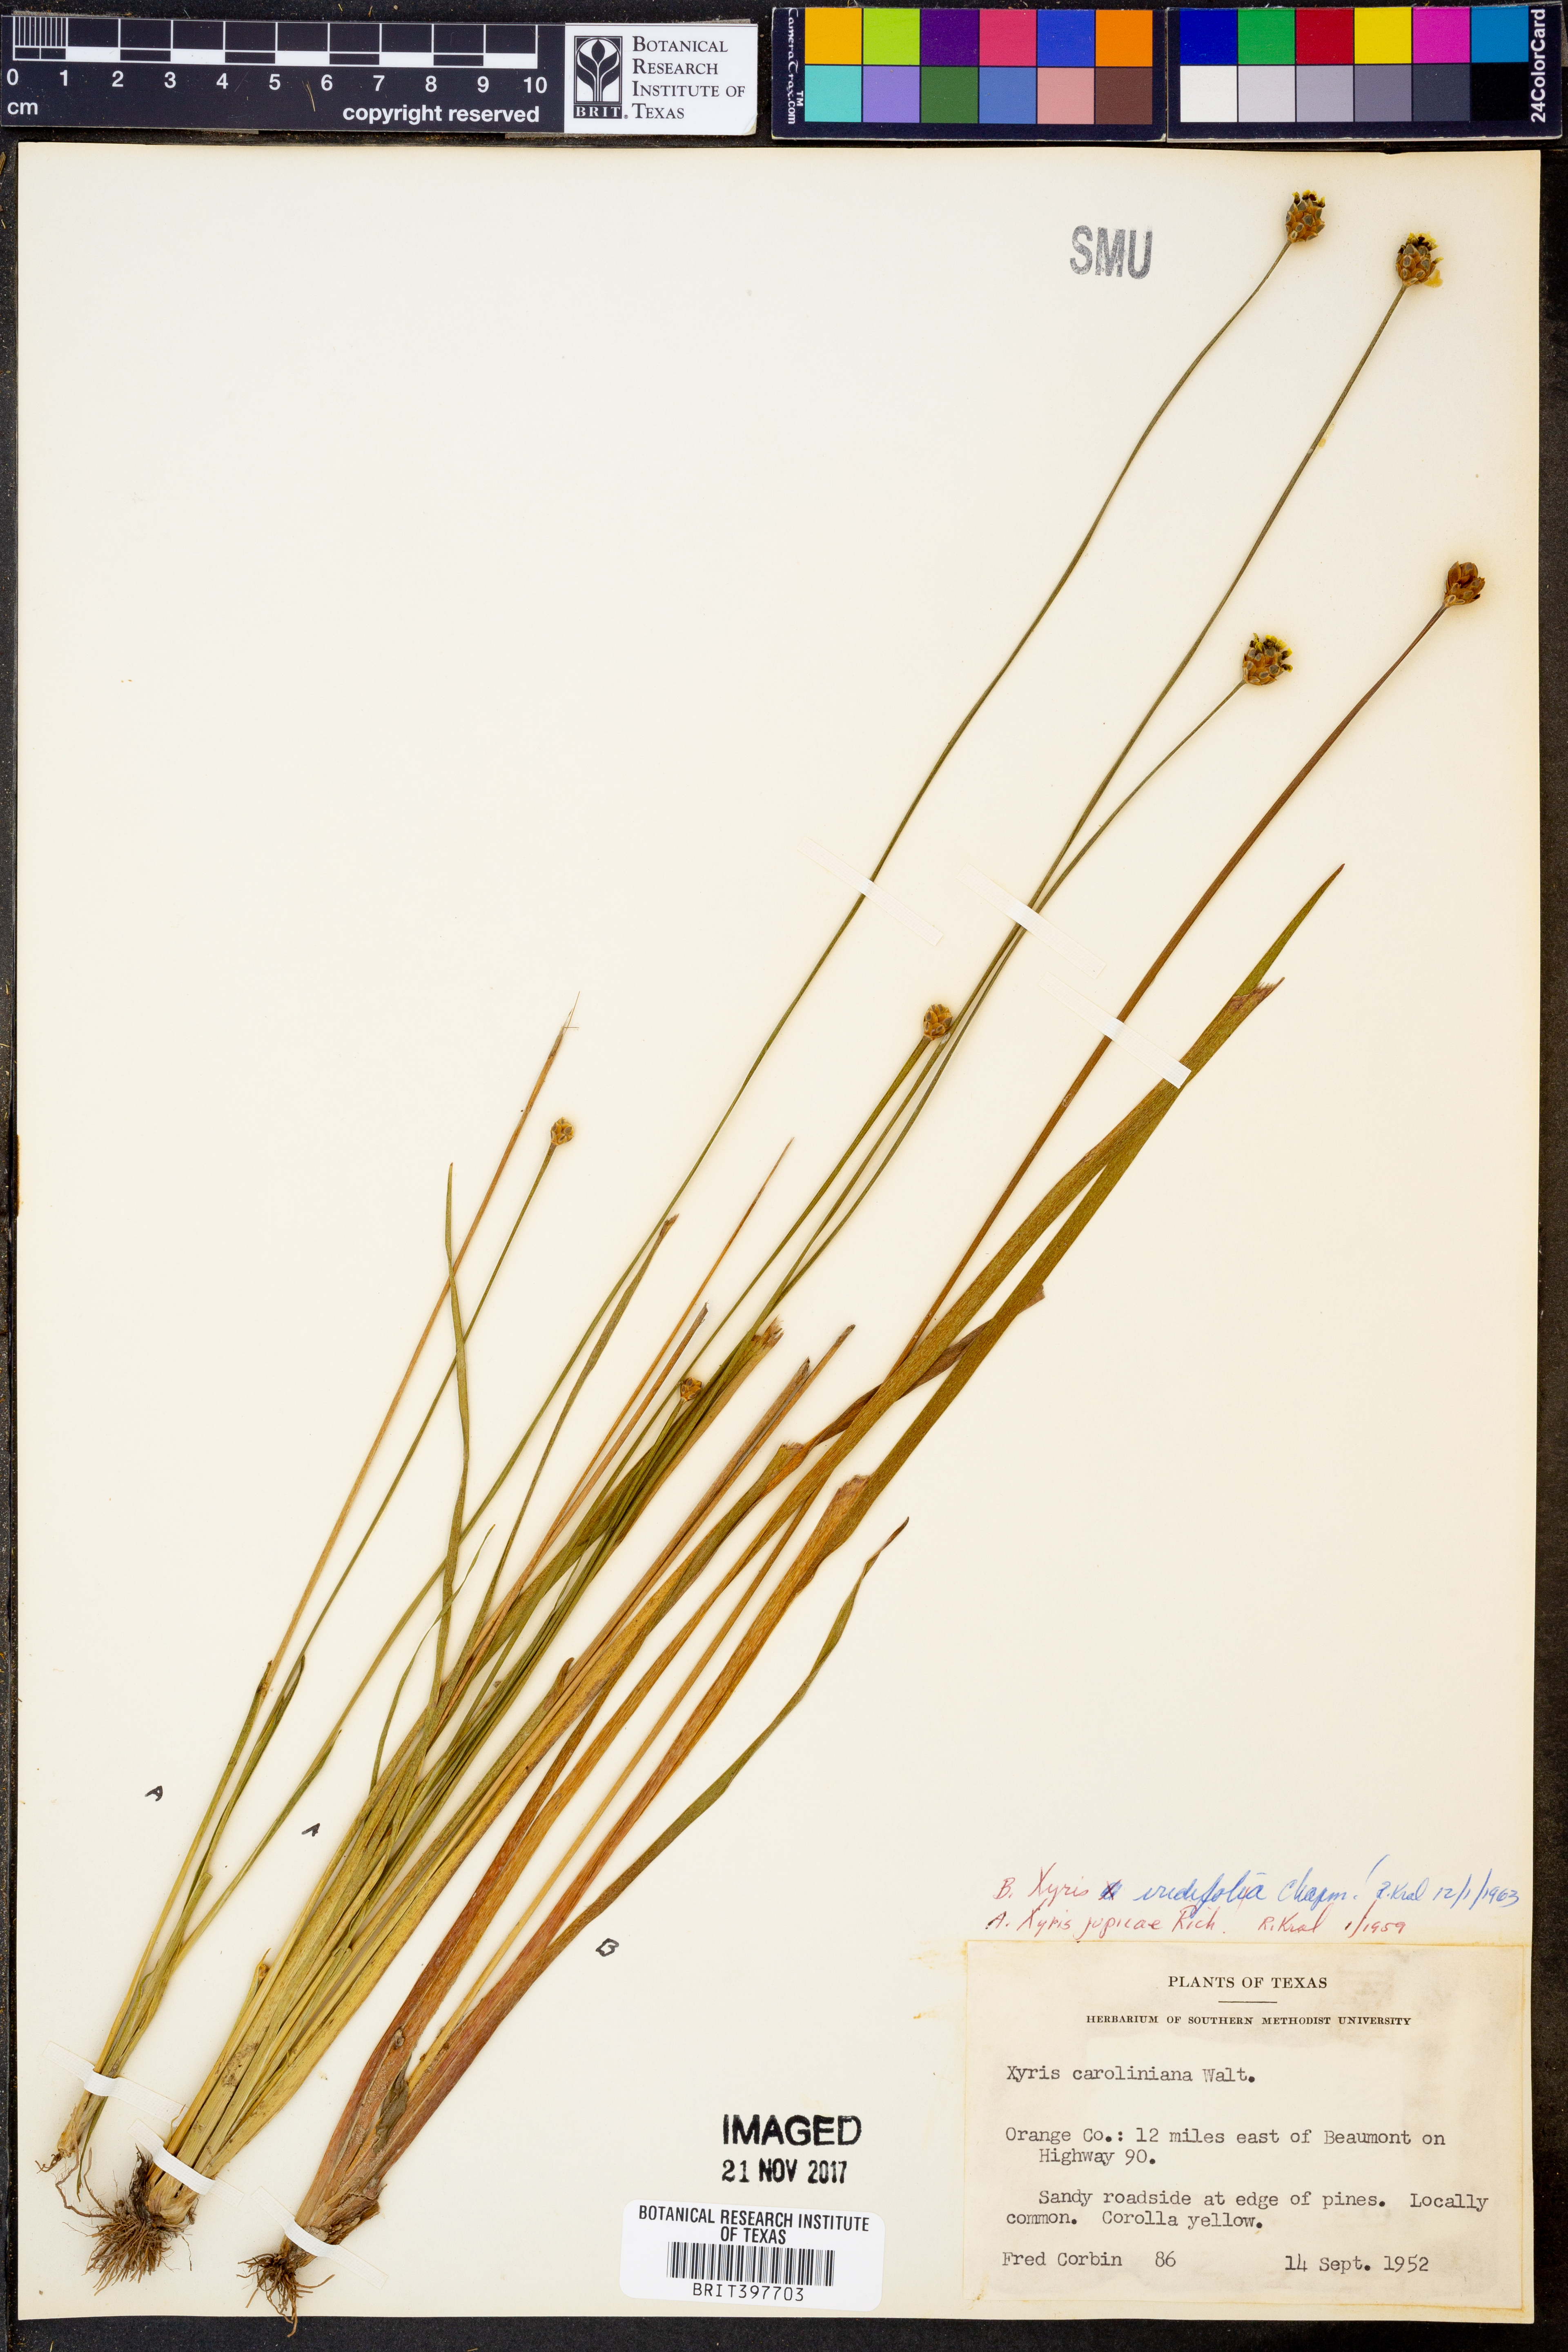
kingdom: Plantae
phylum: Tracheophyta
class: Liliopsida
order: Poales
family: Xyridaceae
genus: Xyris
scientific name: Xyris jupicai
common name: Richard's yelloweyed grass
